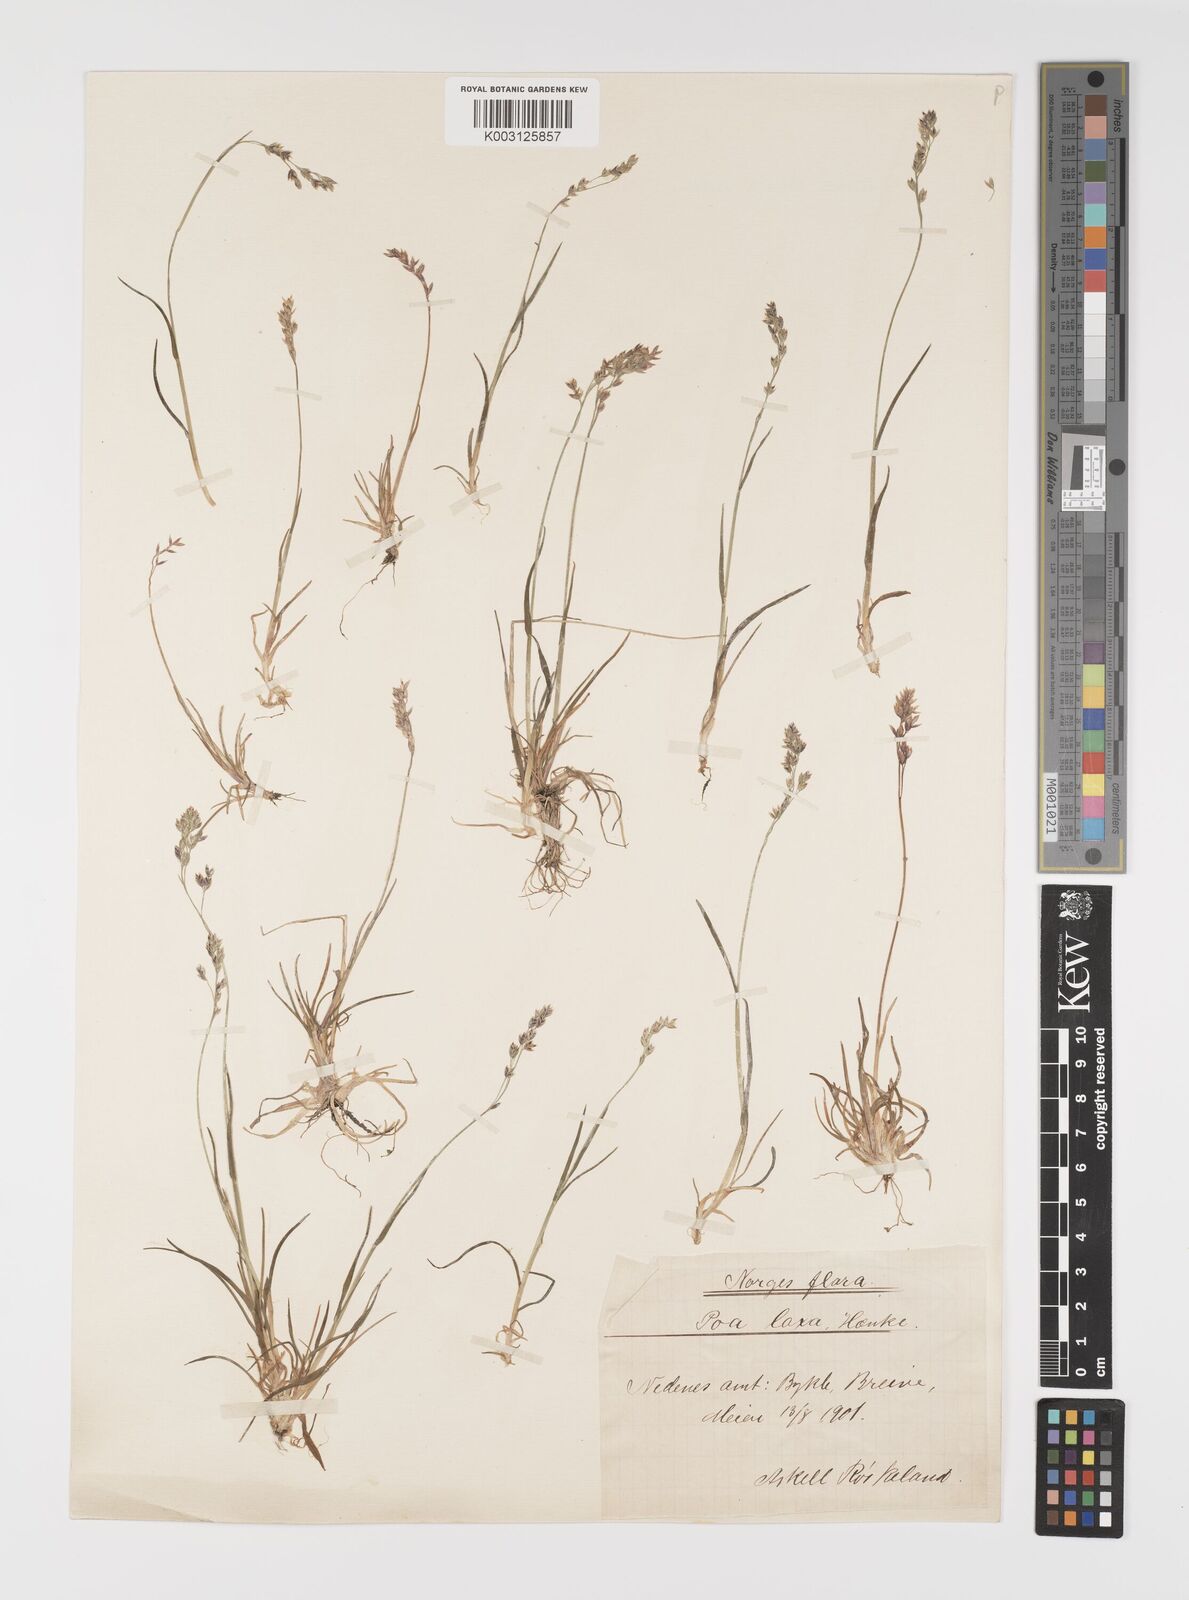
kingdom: Plantae
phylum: Tracheophyta
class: Liliopsida
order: Poales
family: Poaceae
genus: Eragrostis
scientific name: Eragrostis cilianensis
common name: Stinkgrass
